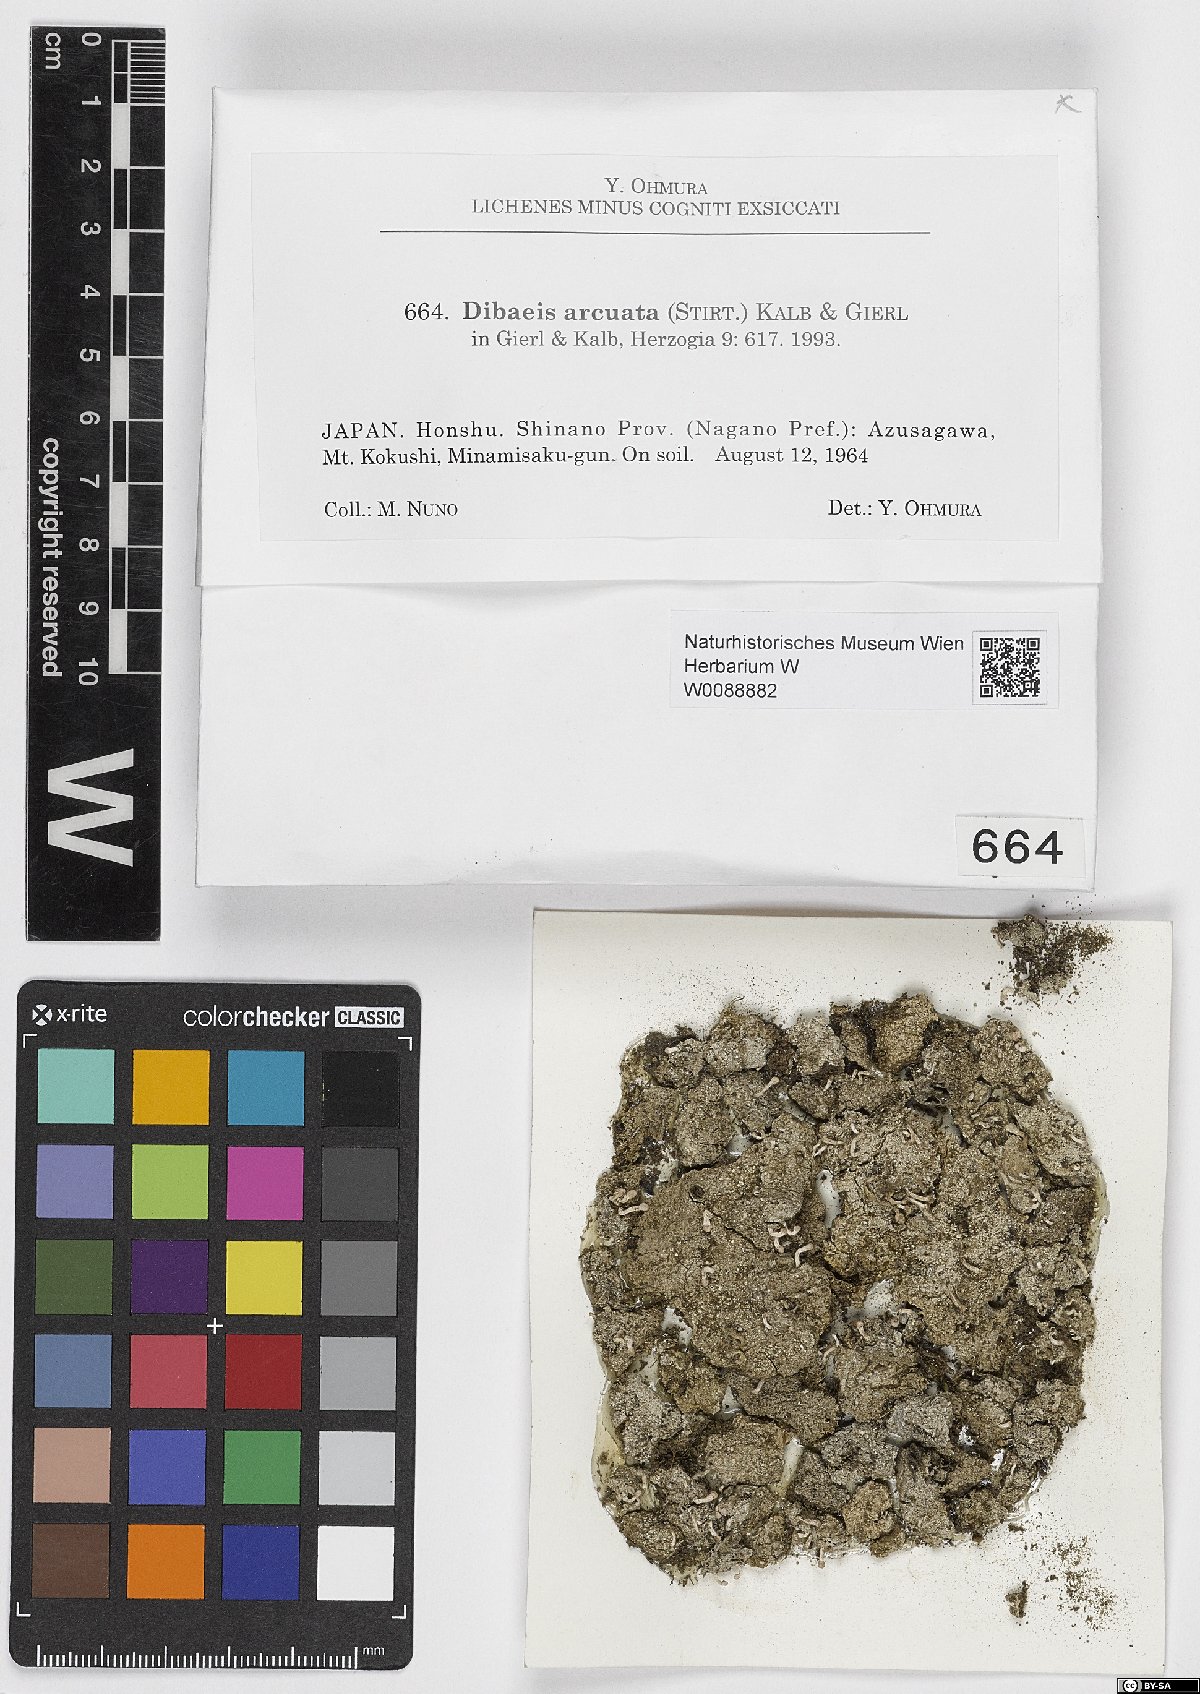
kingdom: Fungi
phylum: Ascomycota
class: Lecanoromycetes
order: Pertusariales
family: Icmadophilaceae
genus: Dibaeis
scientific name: Dibaeis arcuata
